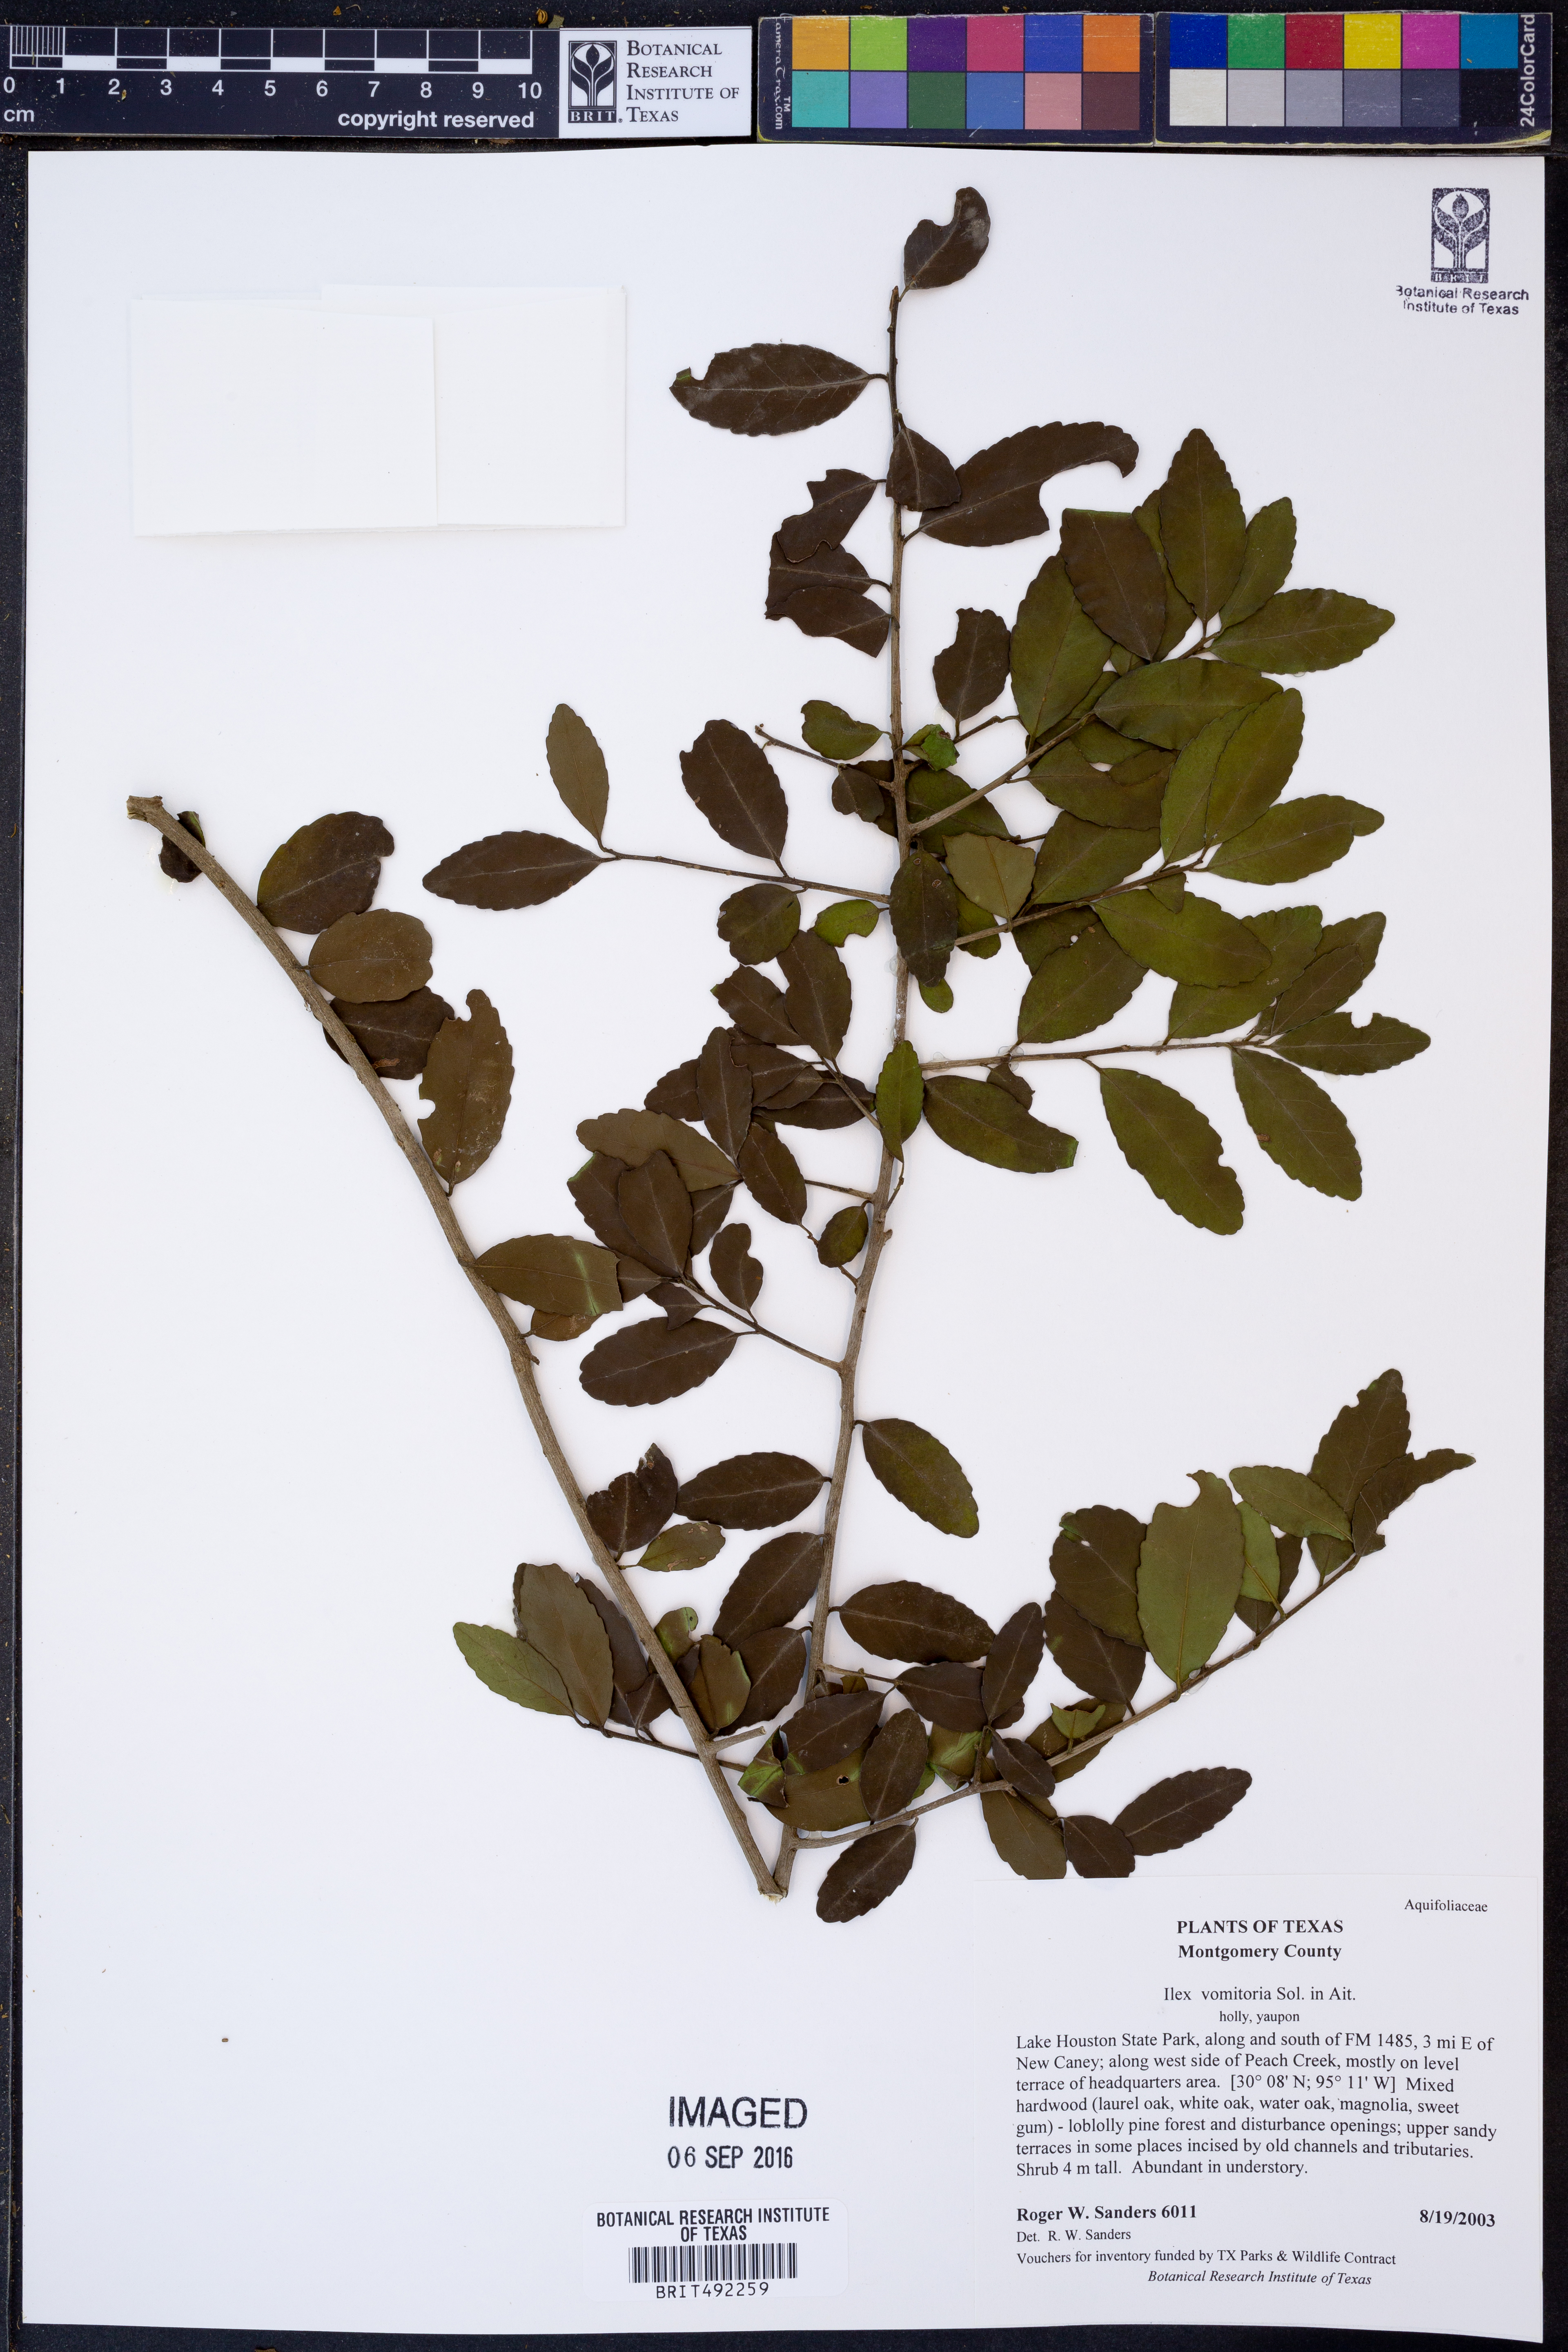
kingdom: Plantae
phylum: Tracheophyta
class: Magnoliopsida
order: Aquifoliales
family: Aquifoliaceae
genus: Ilex
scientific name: Ilex vomitoria
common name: Yaupon holly
